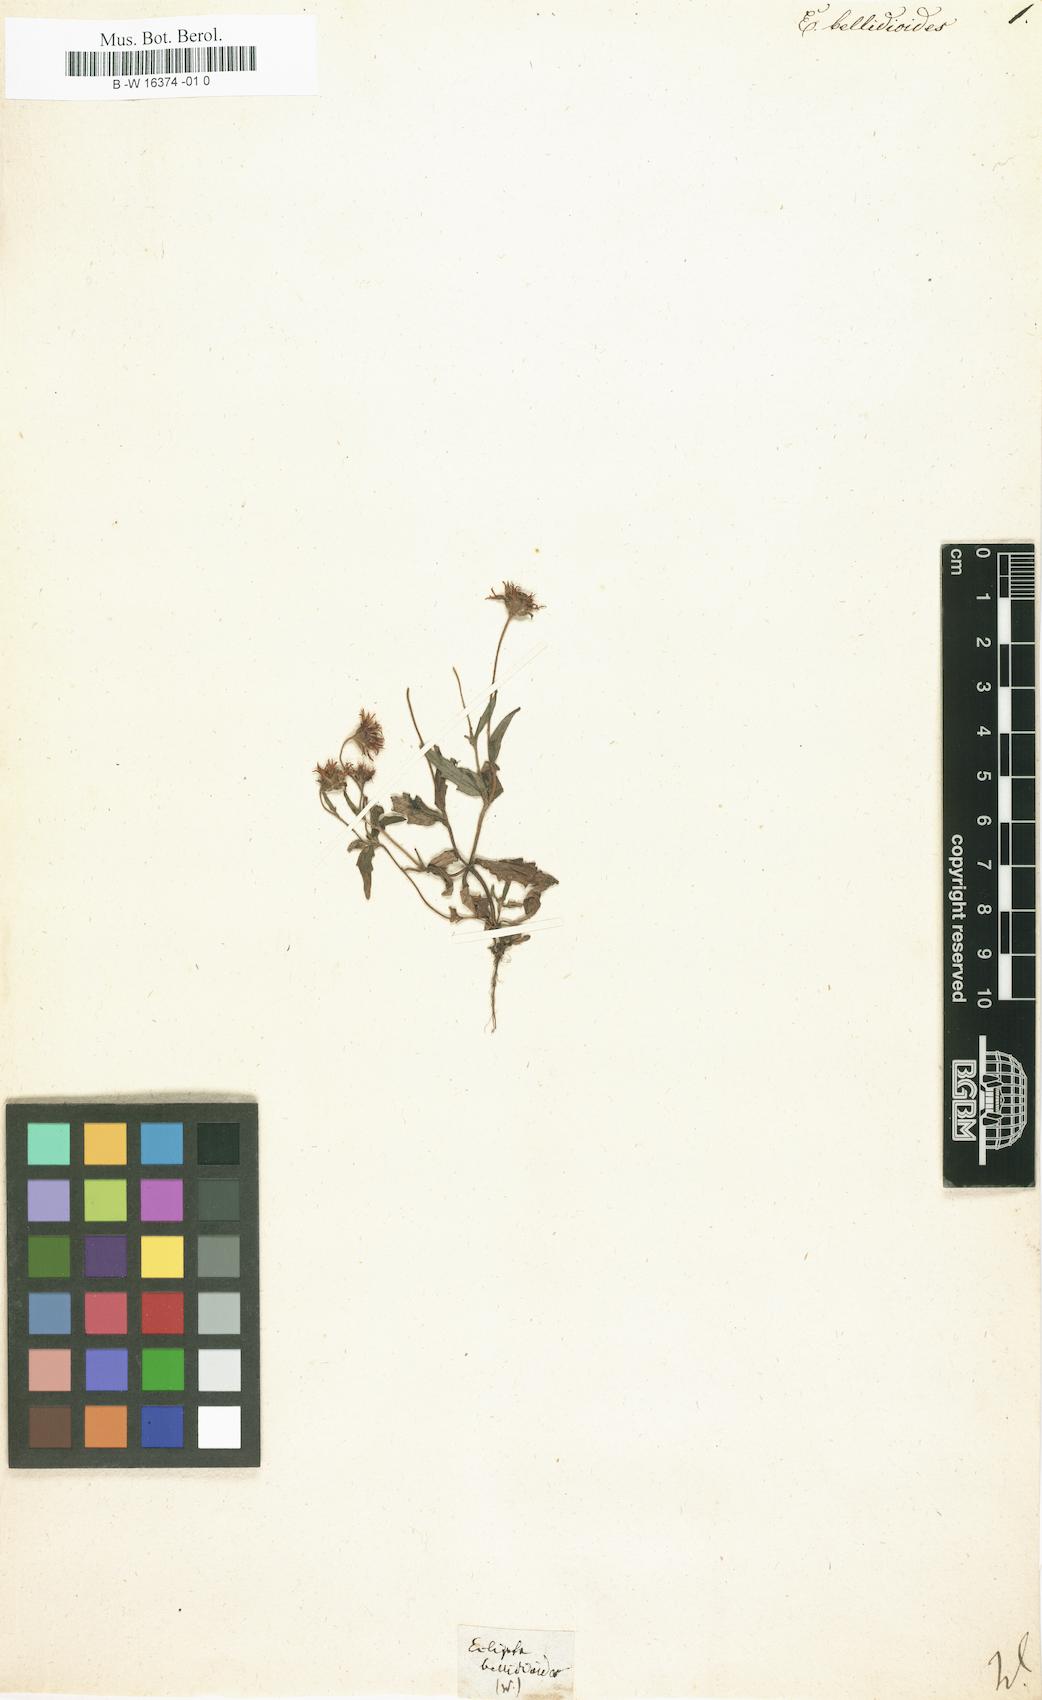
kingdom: Plantae
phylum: Tracheophyta
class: Magnoliopsida
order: Asterales
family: Asteraceae
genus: Jaegeria
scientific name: Jaegeria hirta
